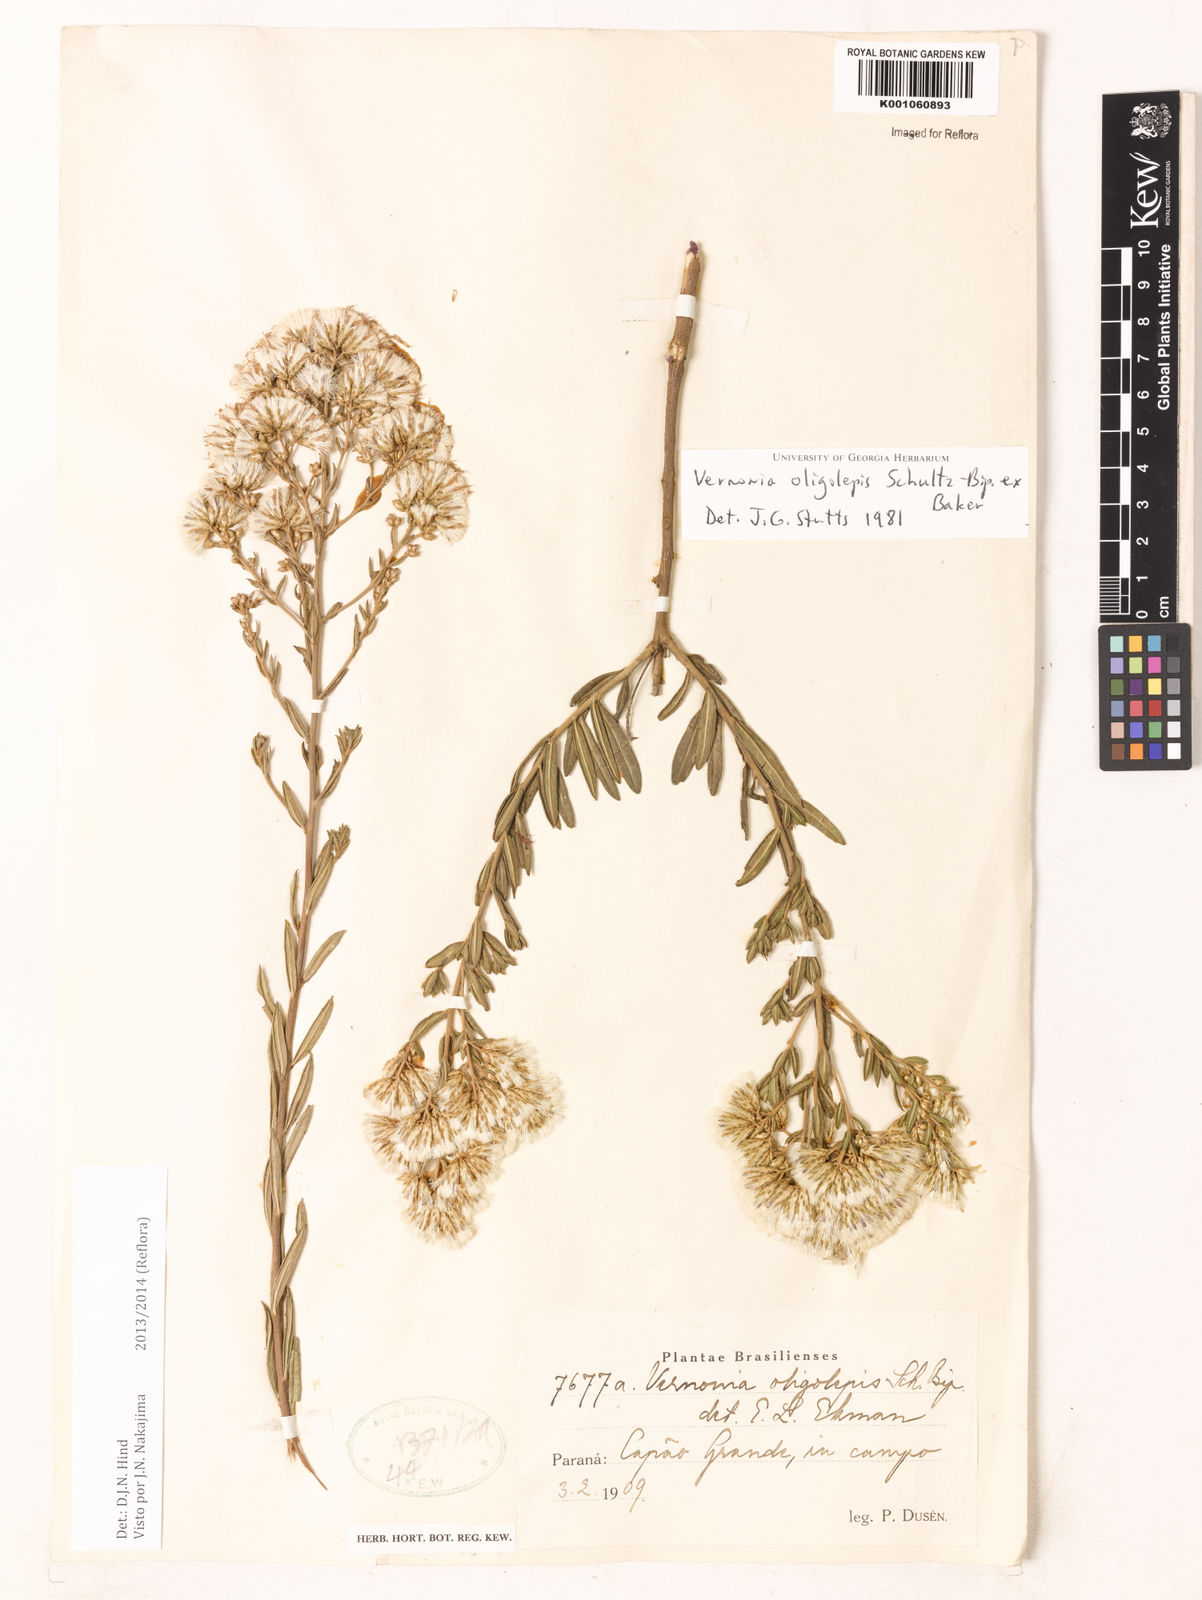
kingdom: Plantae
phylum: Tracheophyta
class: Magnoliopsida
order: Asterales
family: Asteraceae
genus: Vernonanthura
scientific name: Vernonanthura oligolepis
